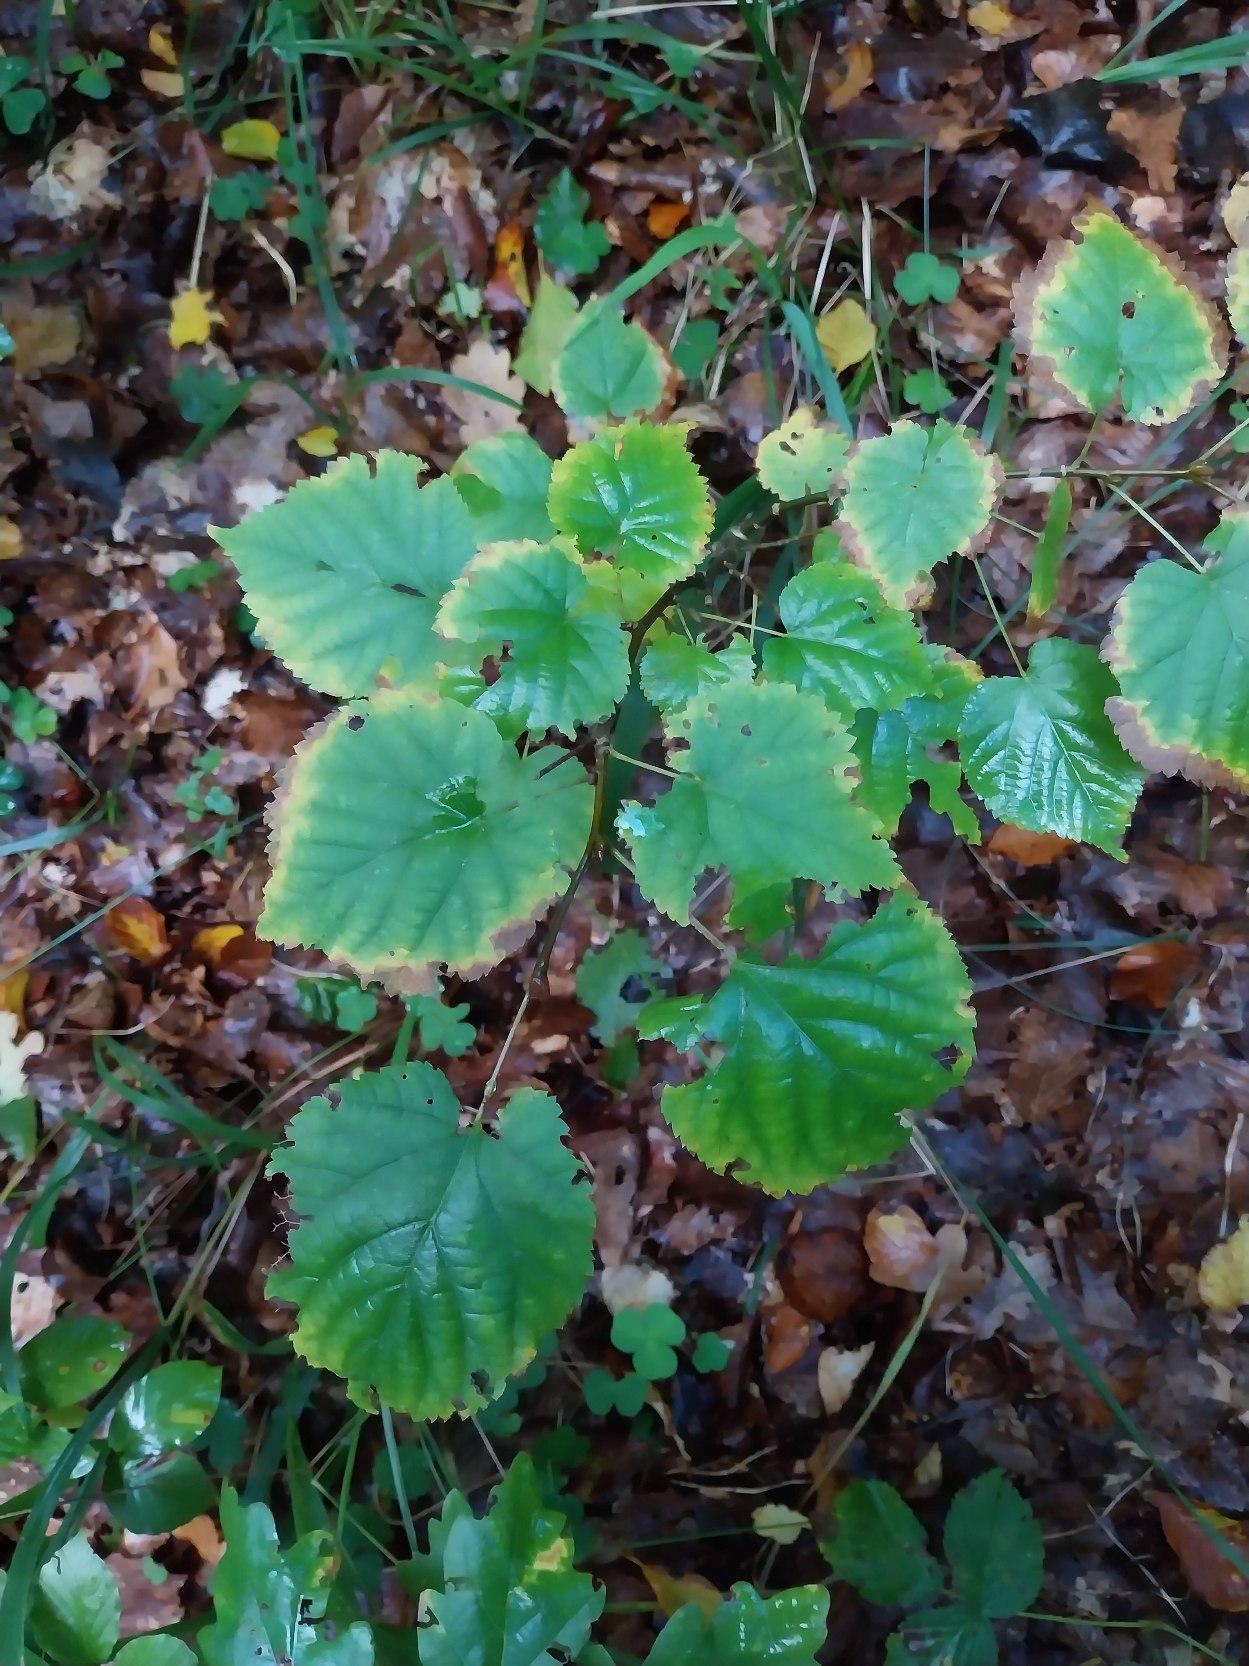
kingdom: Plantae
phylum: Tracheophyta
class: Magnoliopsida
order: Malvales
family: Malvaceae
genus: Tilia
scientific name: Tilia europaea
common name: Park-lind
